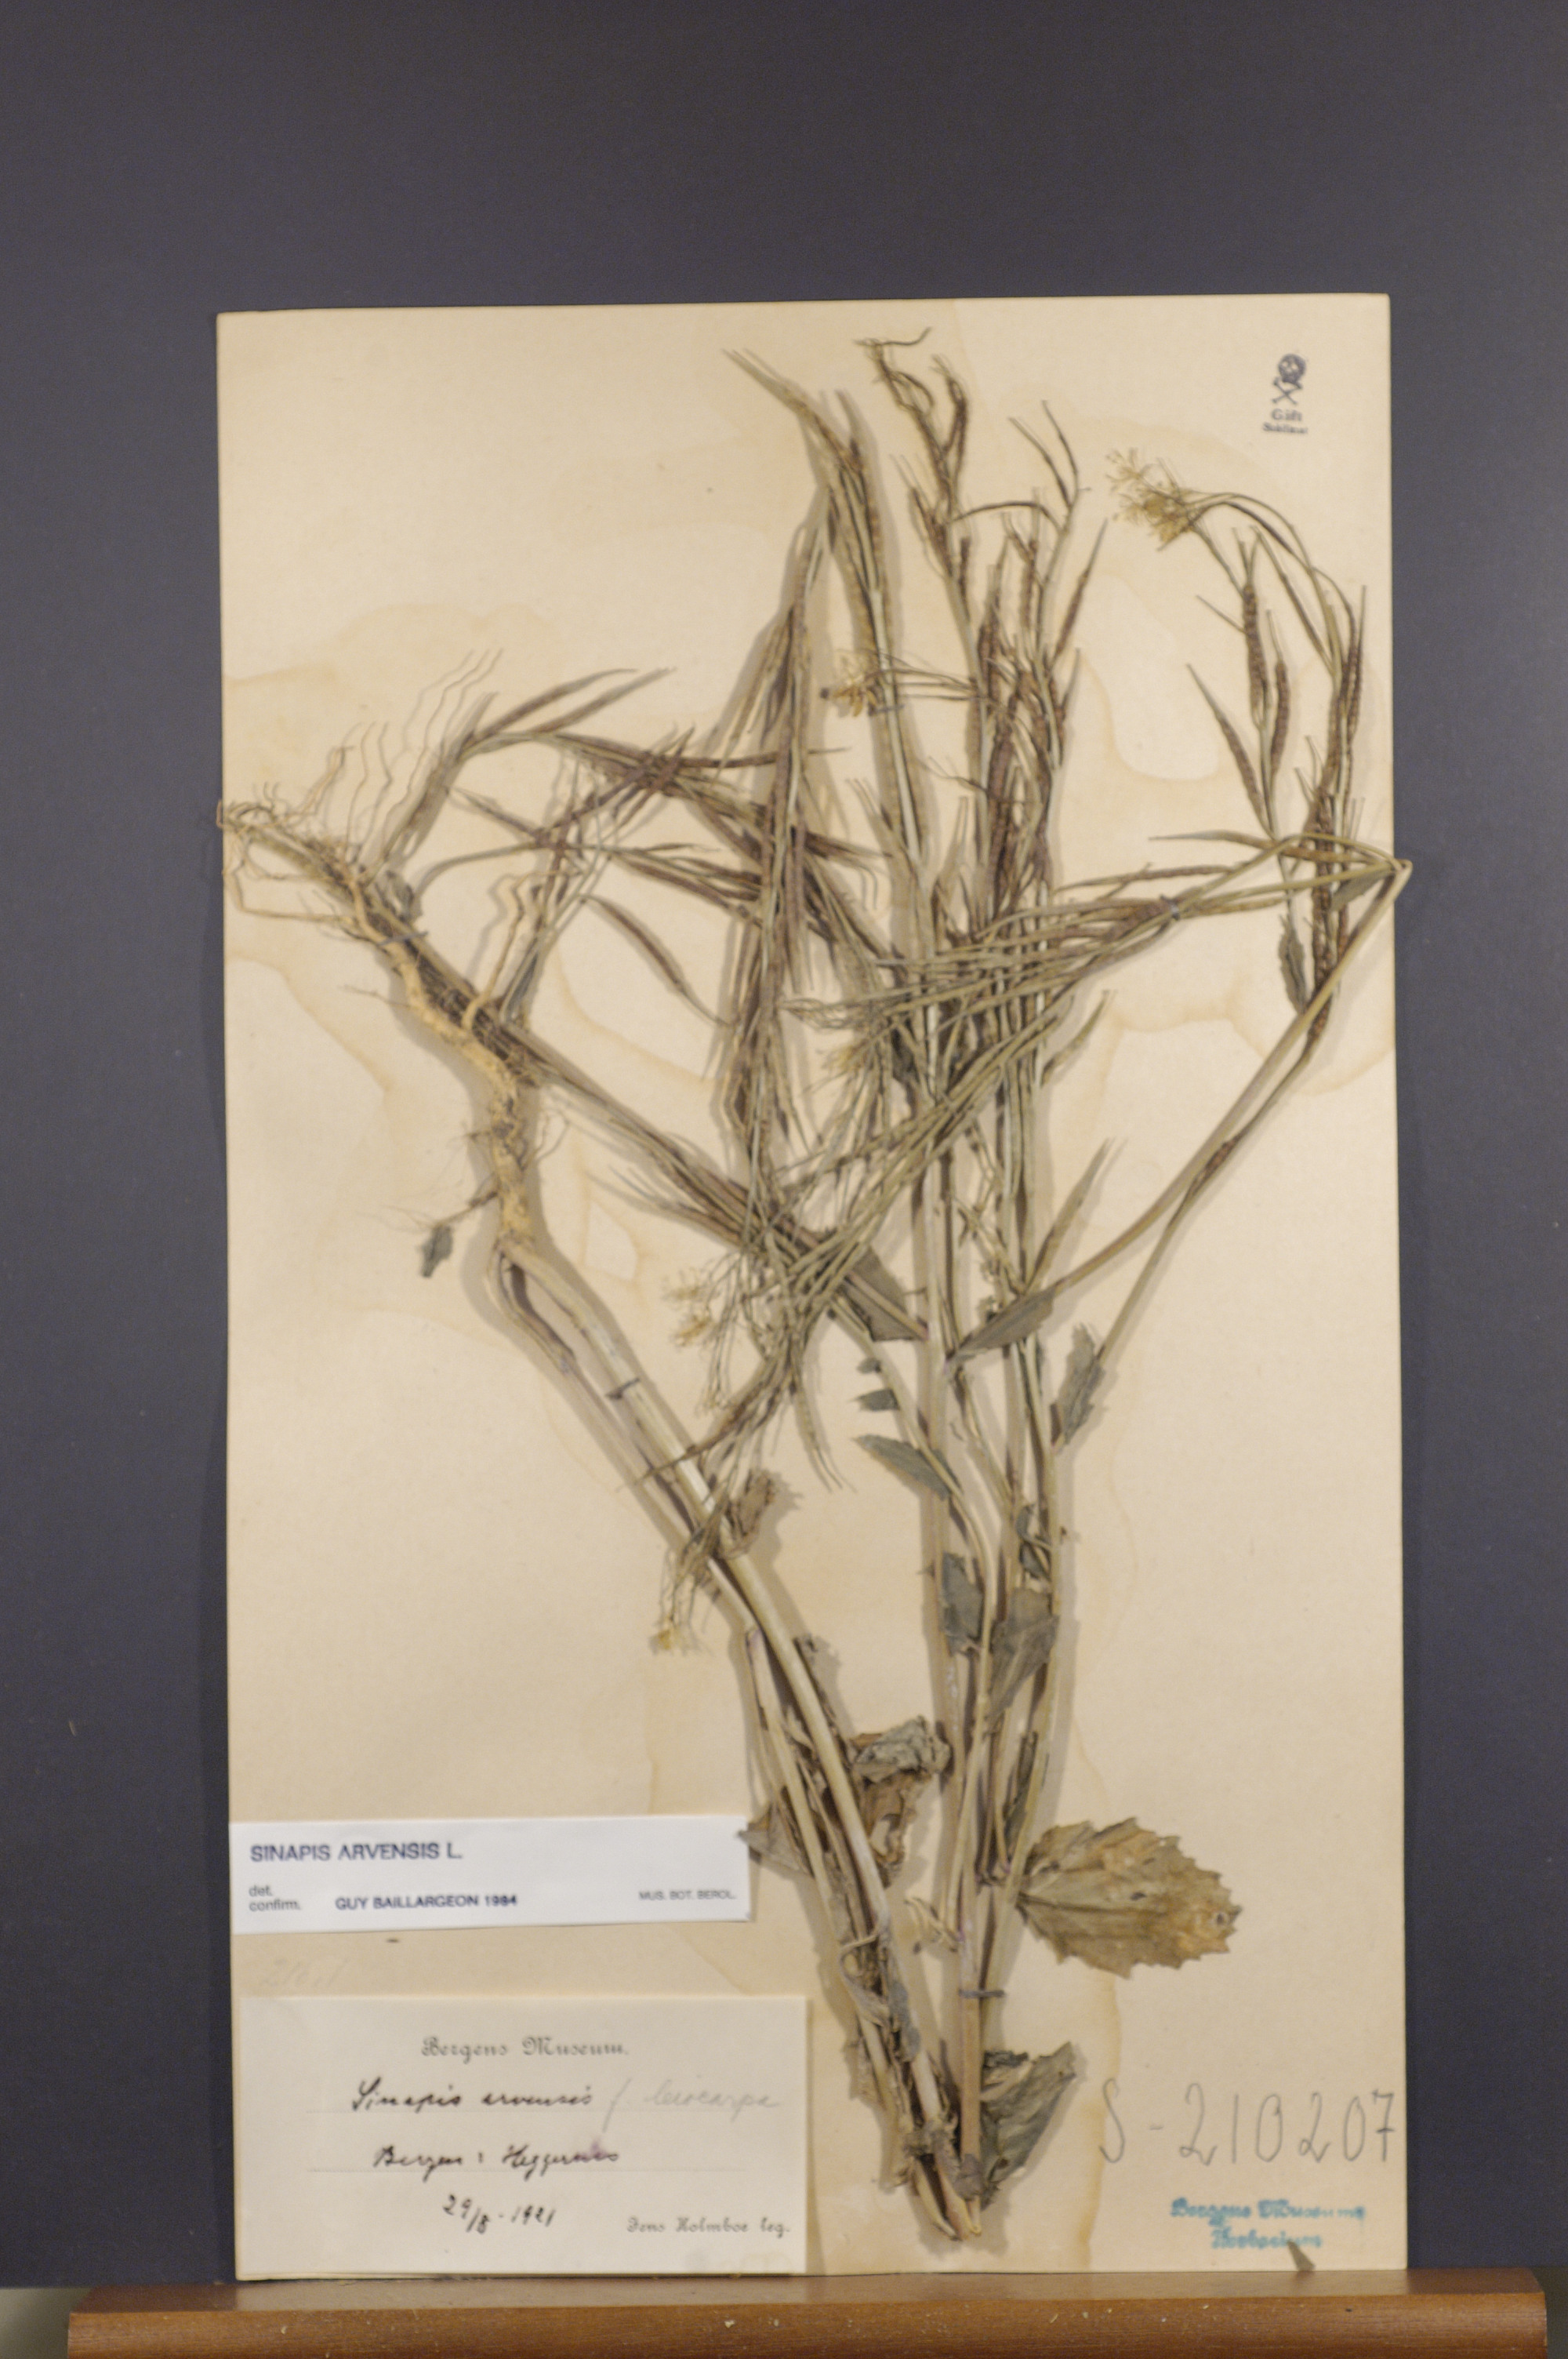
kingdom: Plantae
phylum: Tracheophyta
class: Magnoliopsida
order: Brassicales
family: Brassicaceae
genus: Sinapis
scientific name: Sinapis arvensis
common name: Charlock
